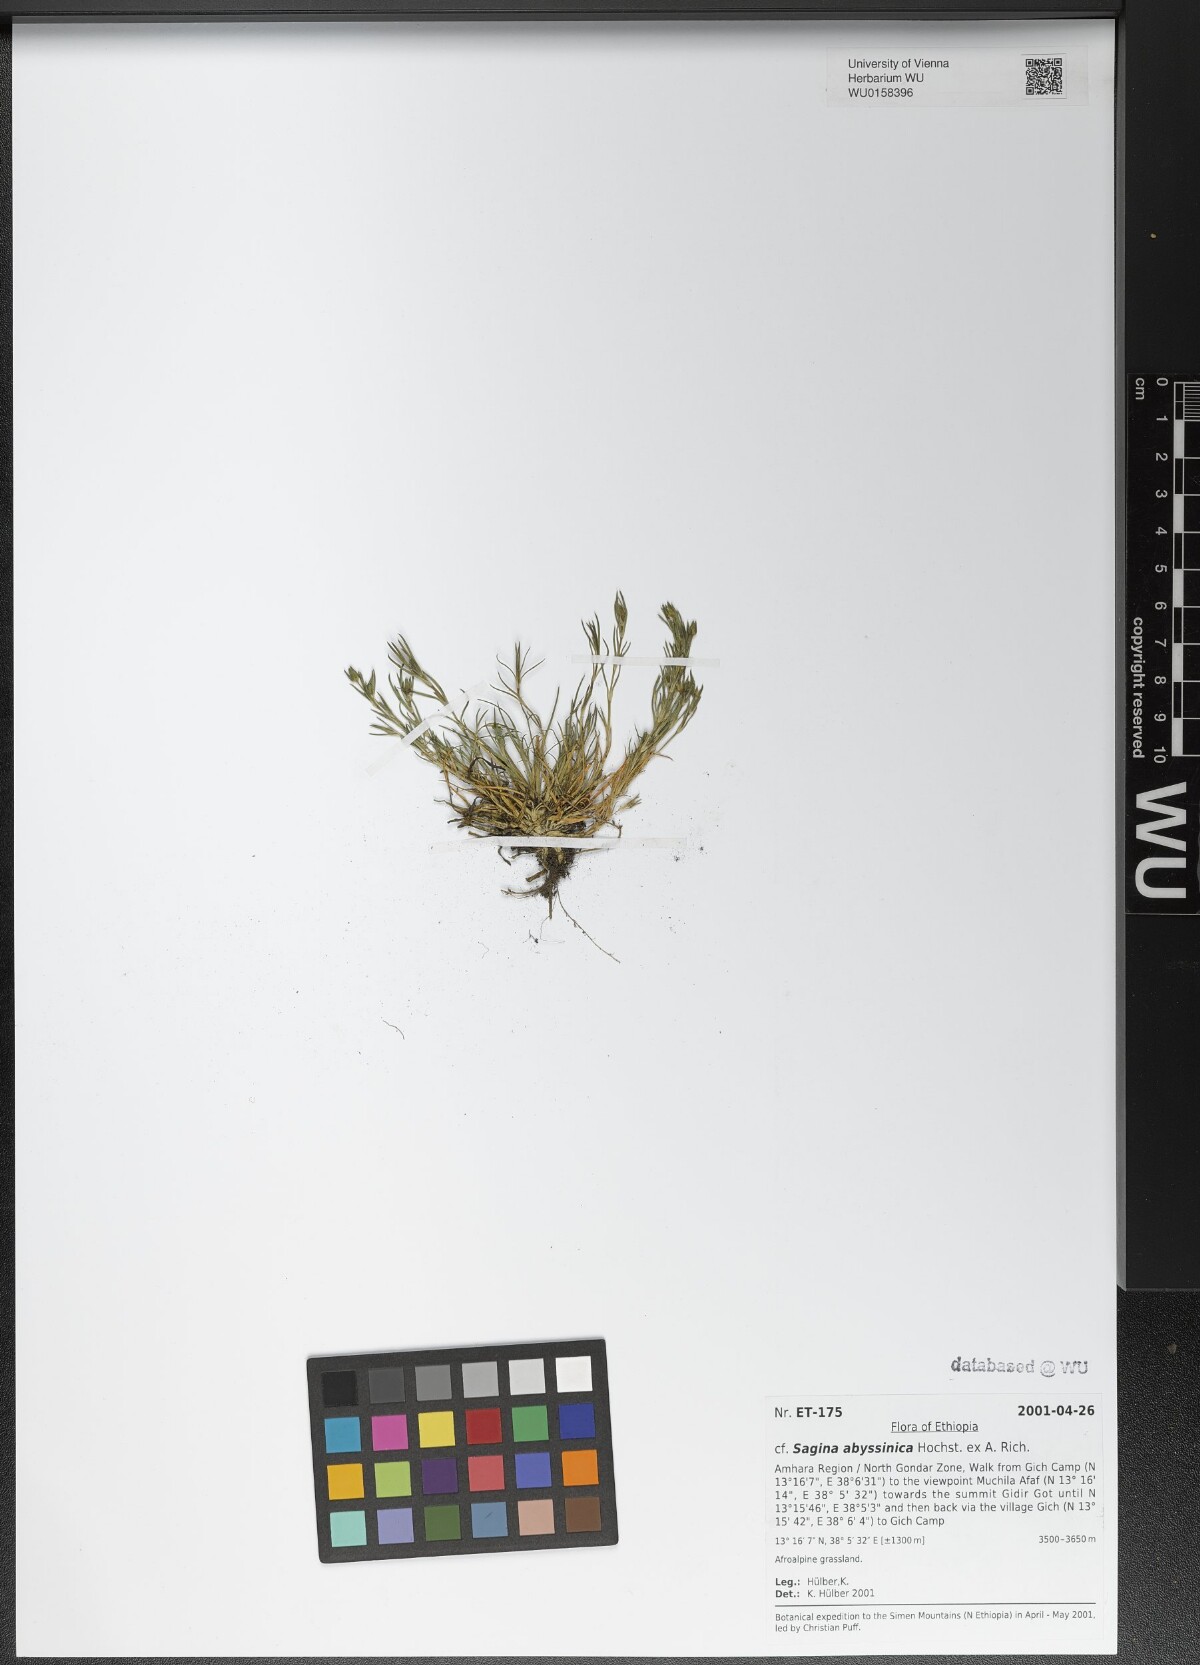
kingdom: Plantae
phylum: Tracheophyta
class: Magnoliopsida
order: Caryophyllales
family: Caryophyllaceae
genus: Sagina
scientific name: Sagina abyssinica
